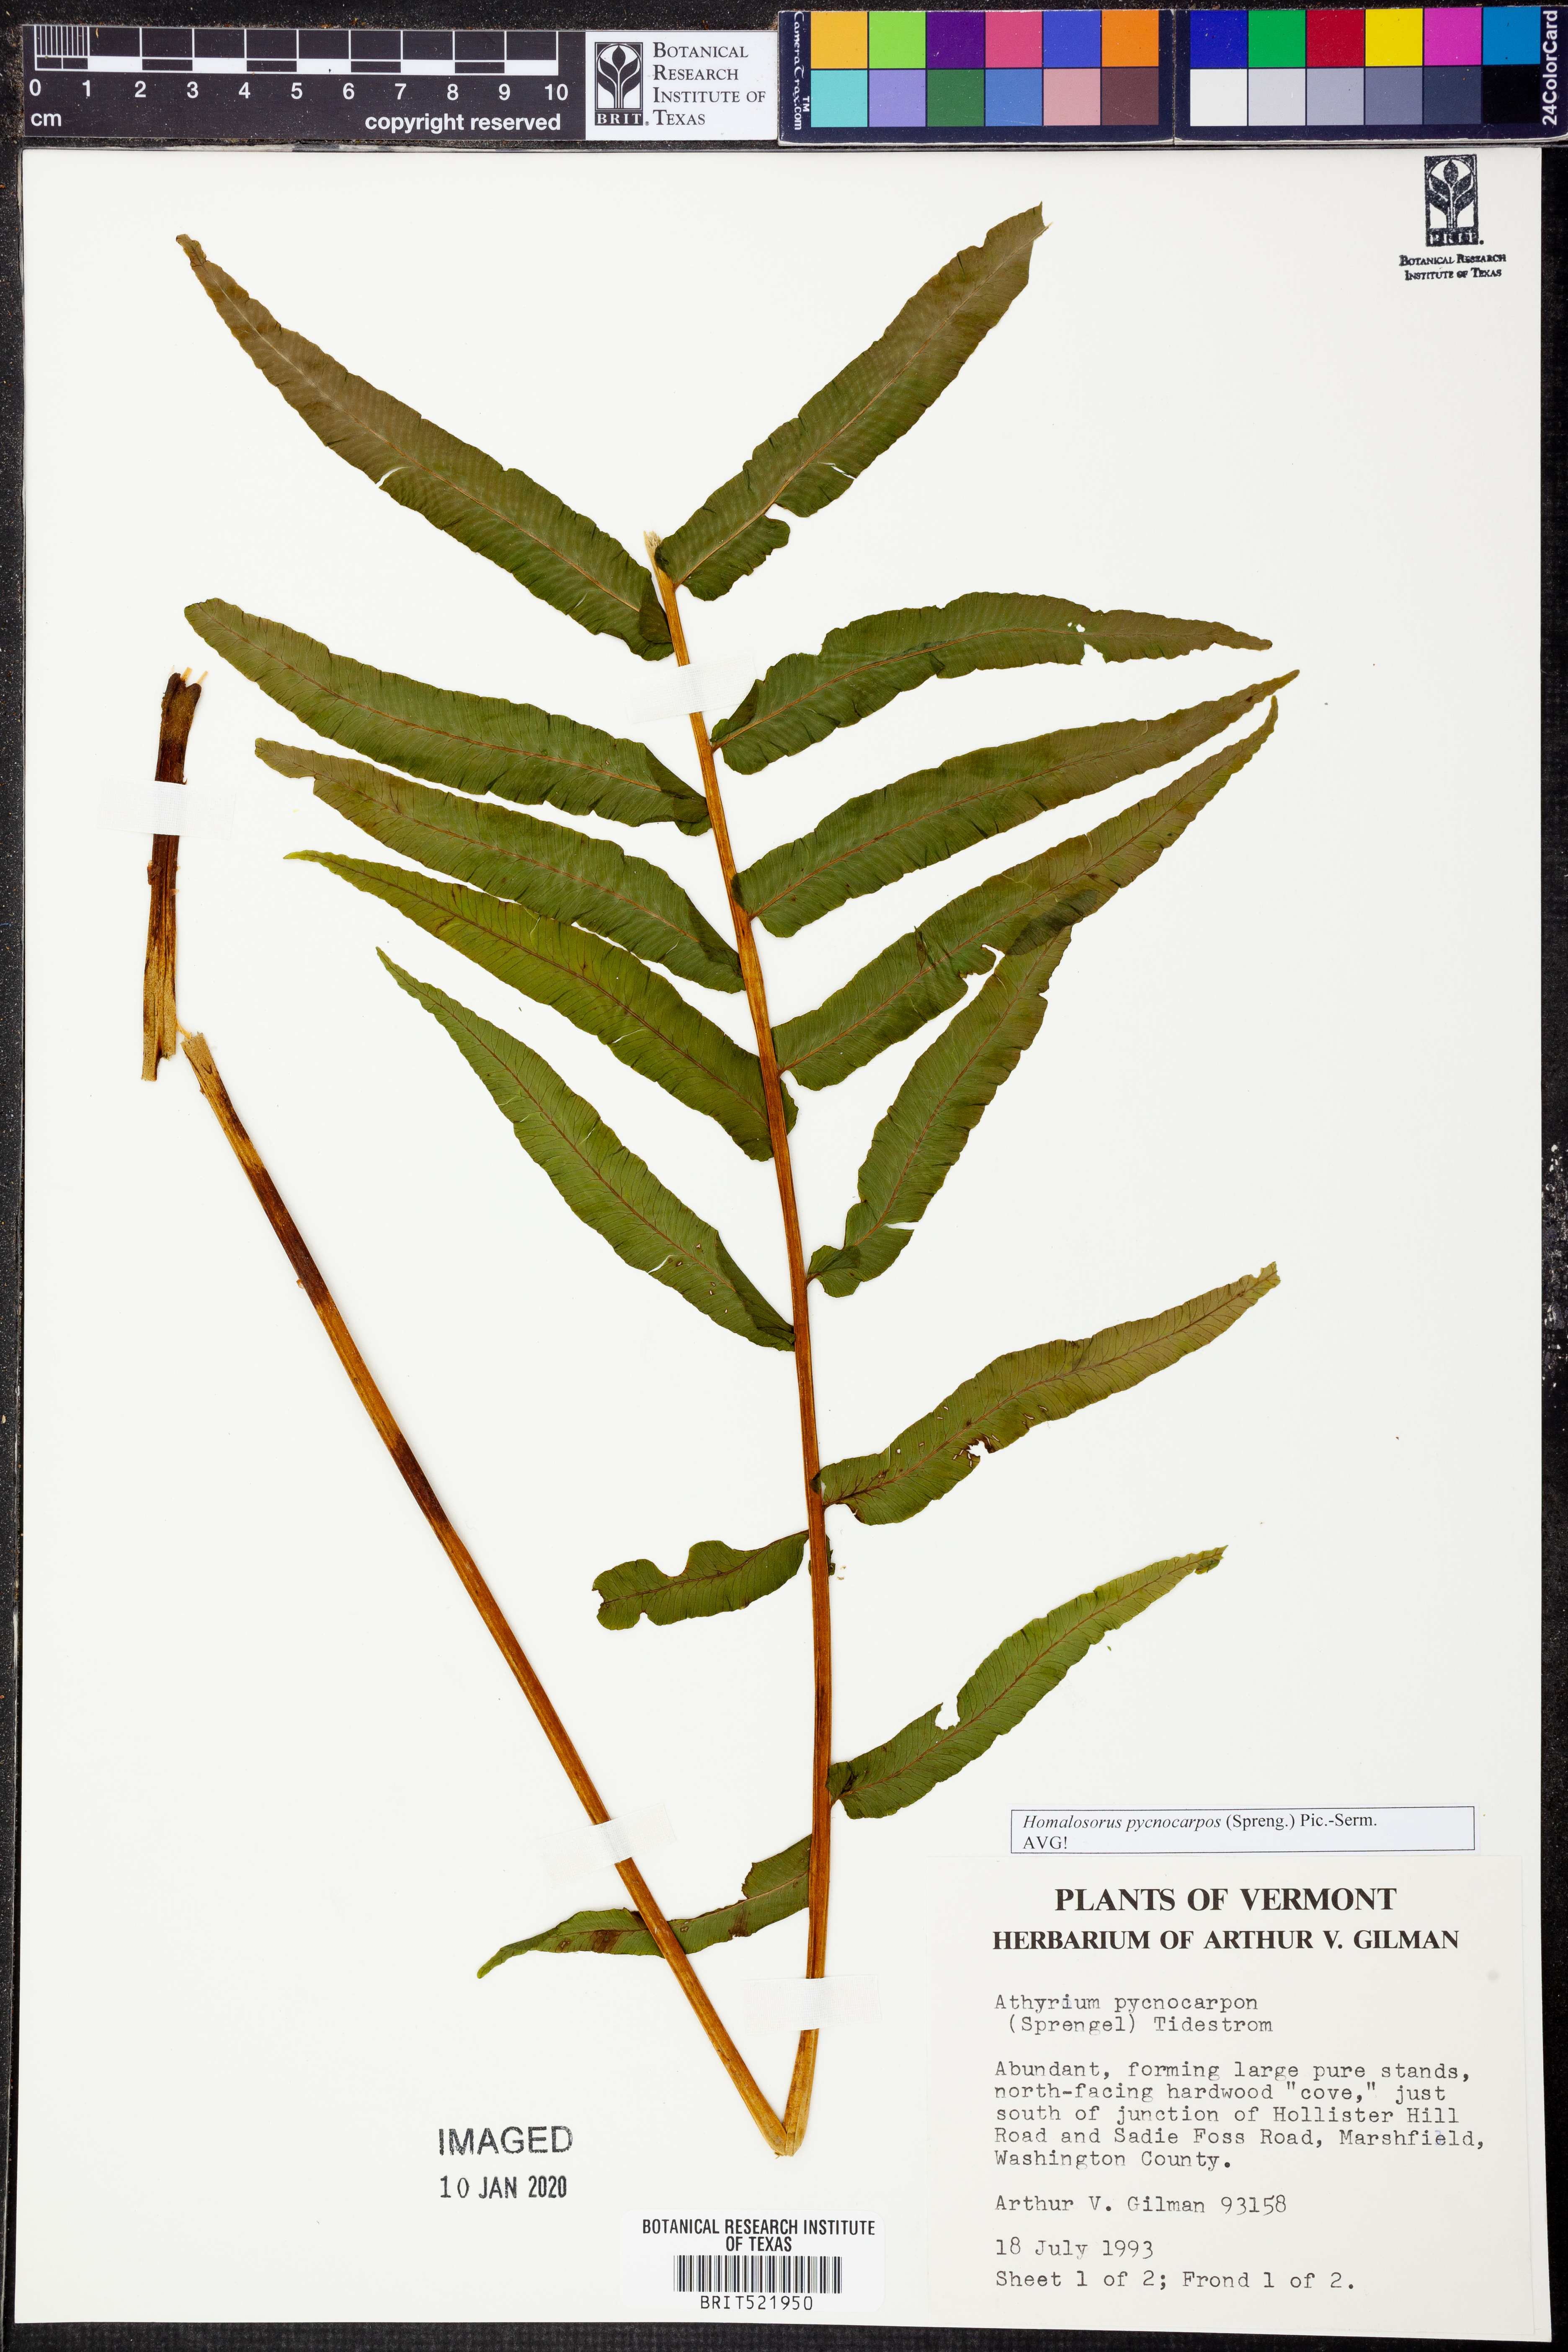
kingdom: Plantae
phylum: Tracheophyta
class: Polypodiopsida
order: Polypodiales
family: Diplaziopsidaceae
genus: Homalosorus
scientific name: Homalosorus pycnocarpos
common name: Glade fern
